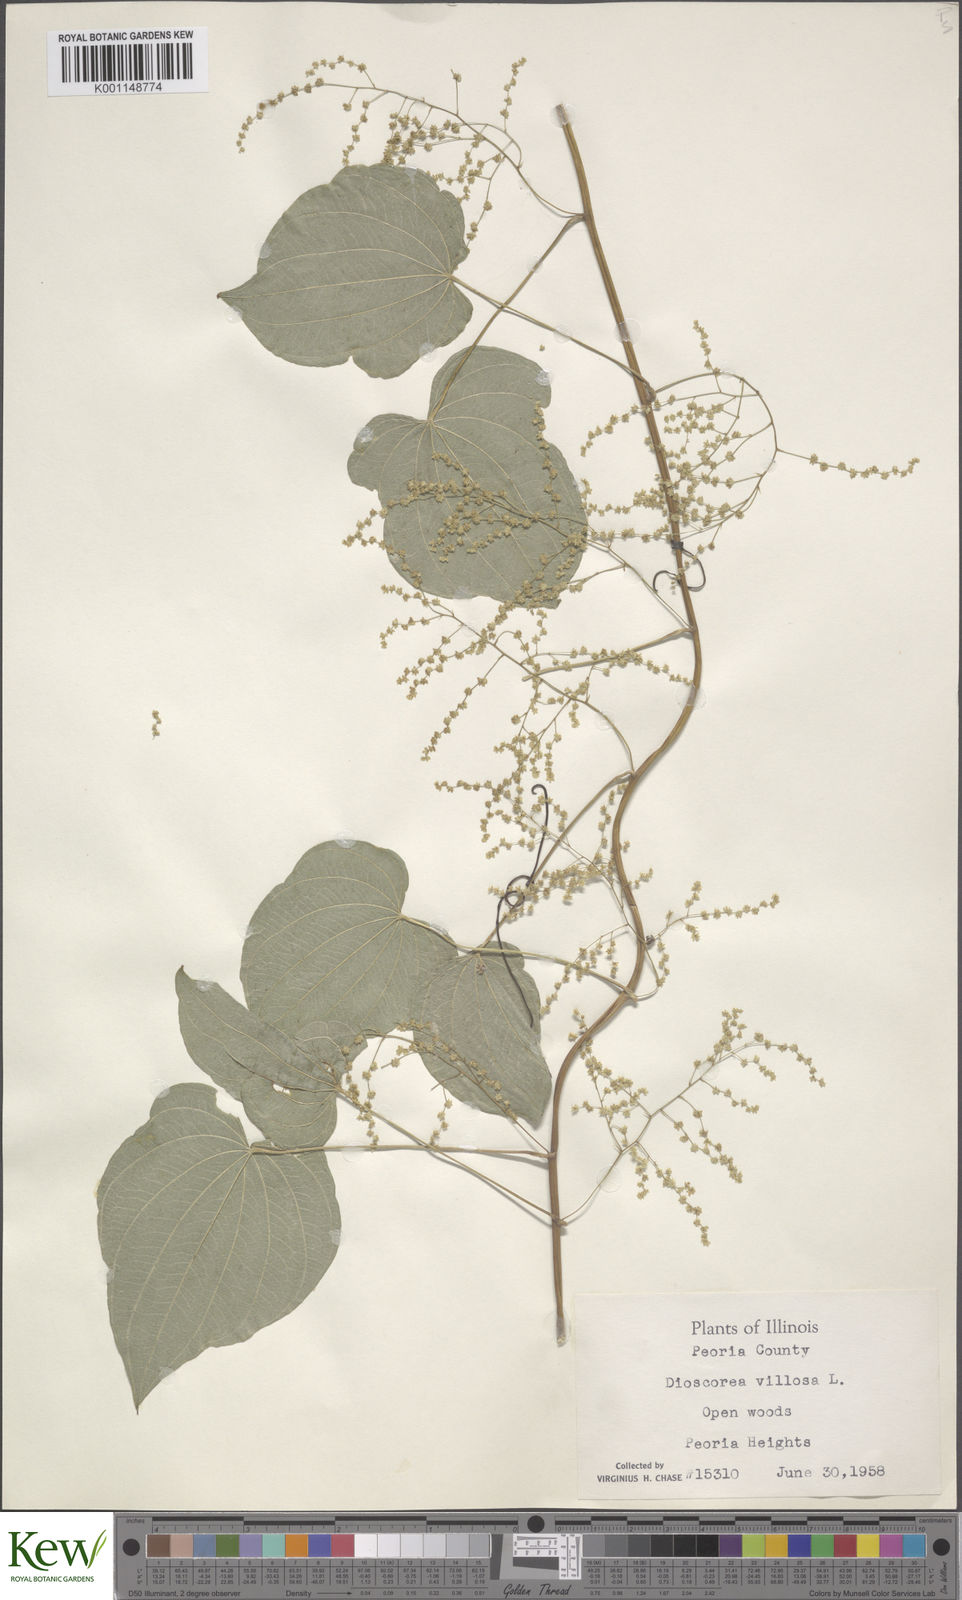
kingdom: Plantae
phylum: Tracheophyta
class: Liliopsida
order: Dioscoreales
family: Dioscoreaceae
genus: Dioscorea
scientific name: Dioscorea villosa
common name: Wild yam
